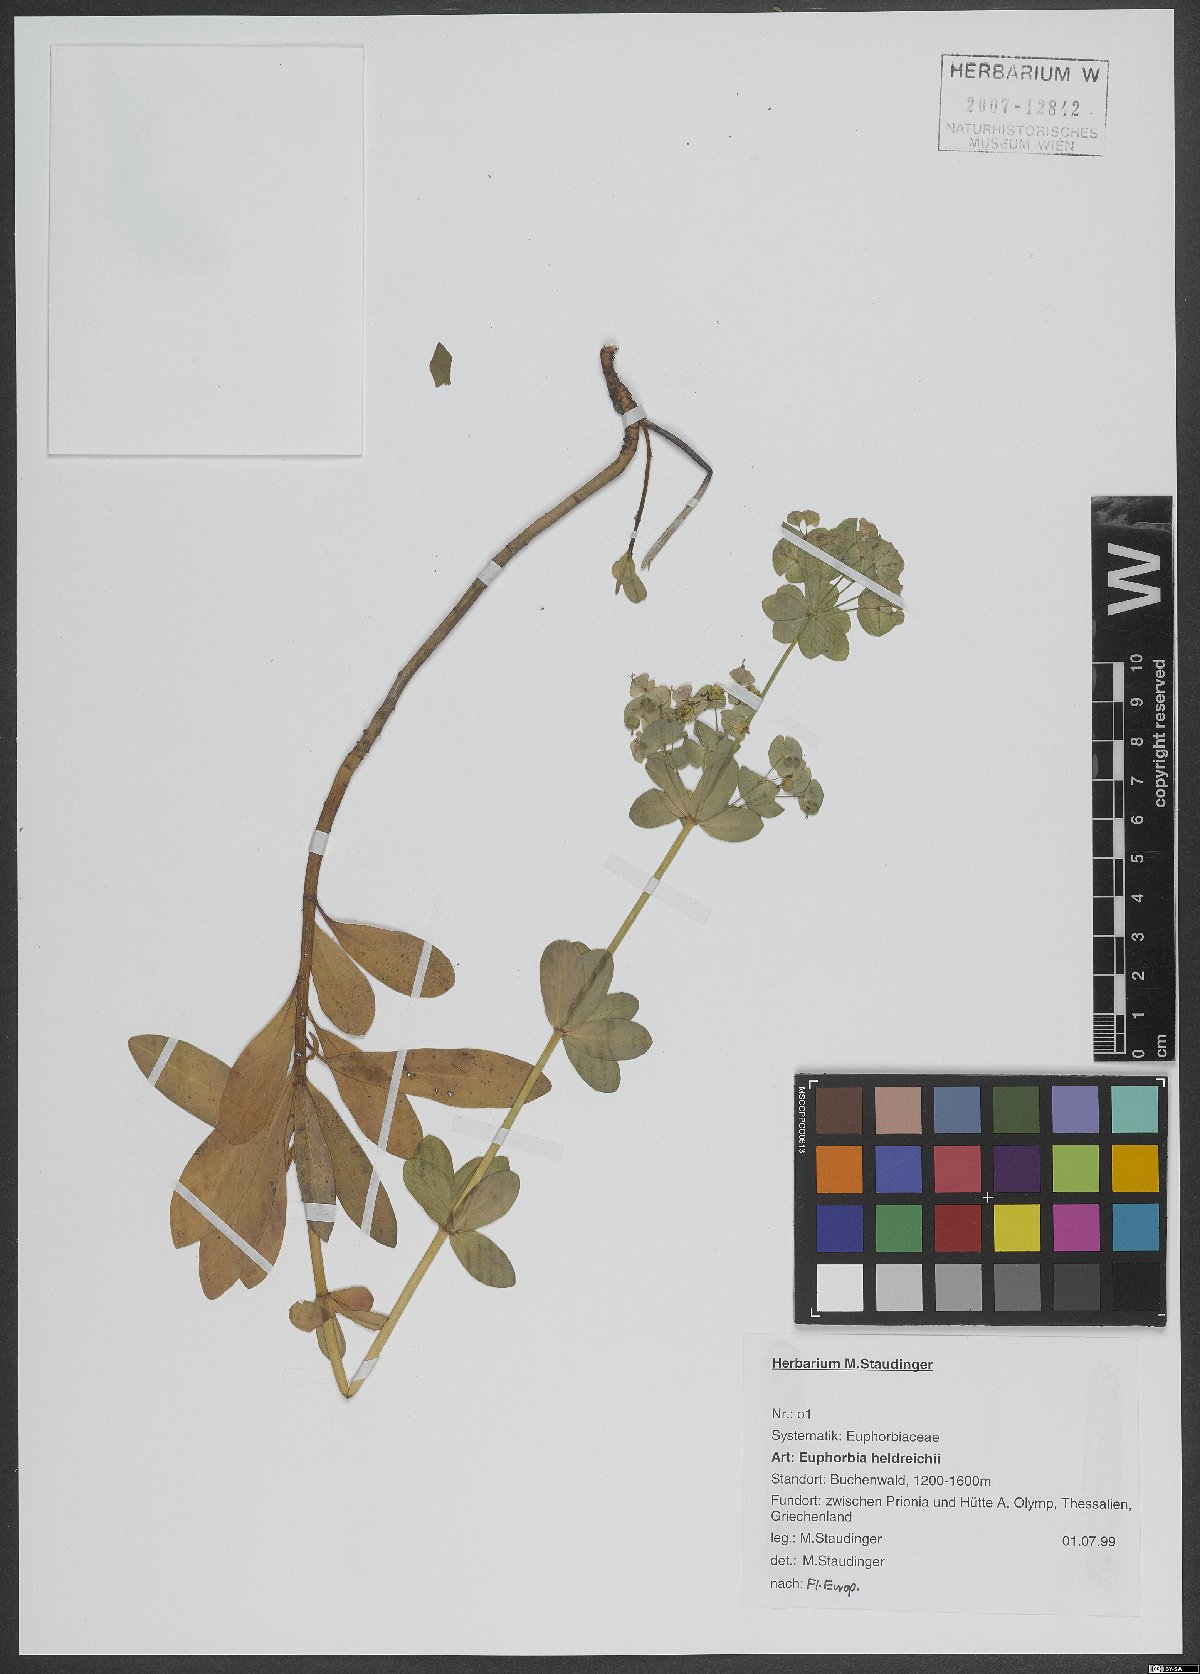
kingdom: Plantae
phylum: Tracheophyta
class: Magnoliopsida
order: Malpighiales
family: Euphorbiaceae
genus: Euphorbia
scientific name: Euphorbia heldreichii
